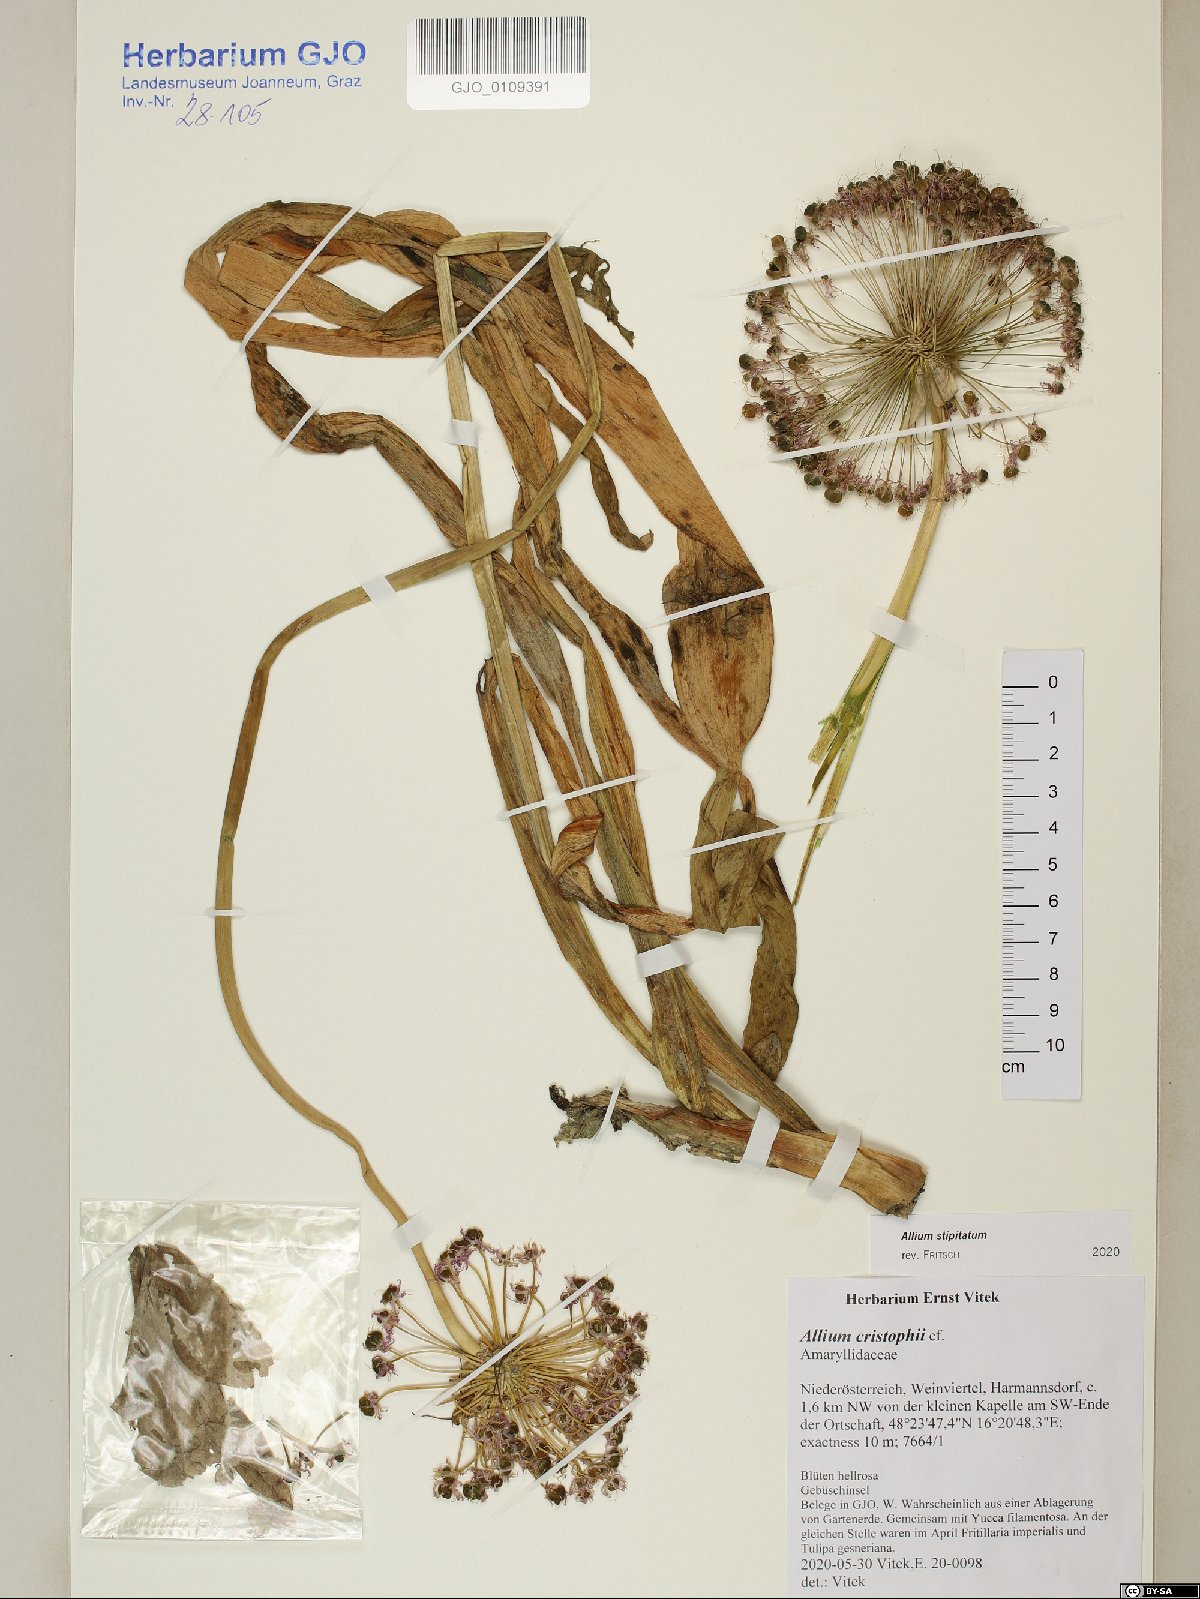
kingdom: Plantae
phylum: Tracheophyta
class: Liliopsida
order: Poales
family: Poaceae
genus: Agrostis
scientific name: Agrostis hallii
